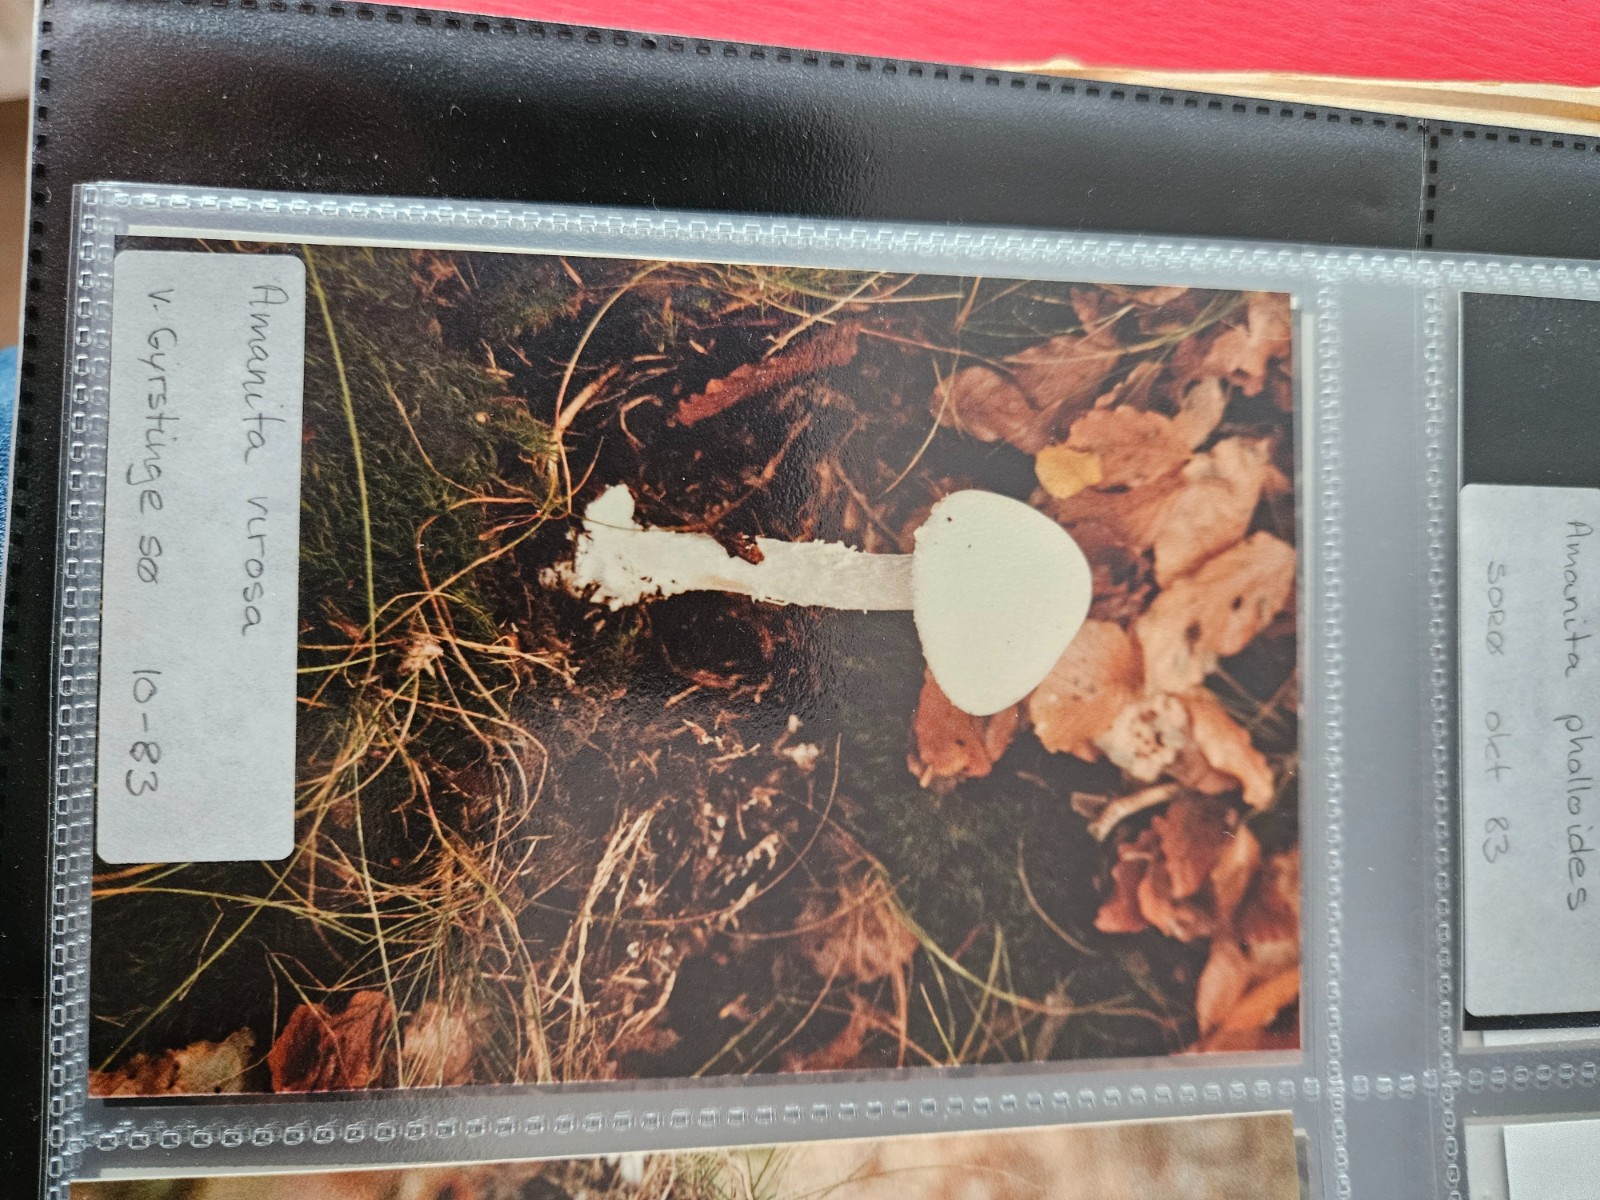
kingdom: Fungi
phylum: Basidiomycota
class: Agaricomycetes
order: Agaricales
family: Amanitaceae
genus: Amanita
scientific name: Amanita virosa
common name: snehvid fluesvamp
